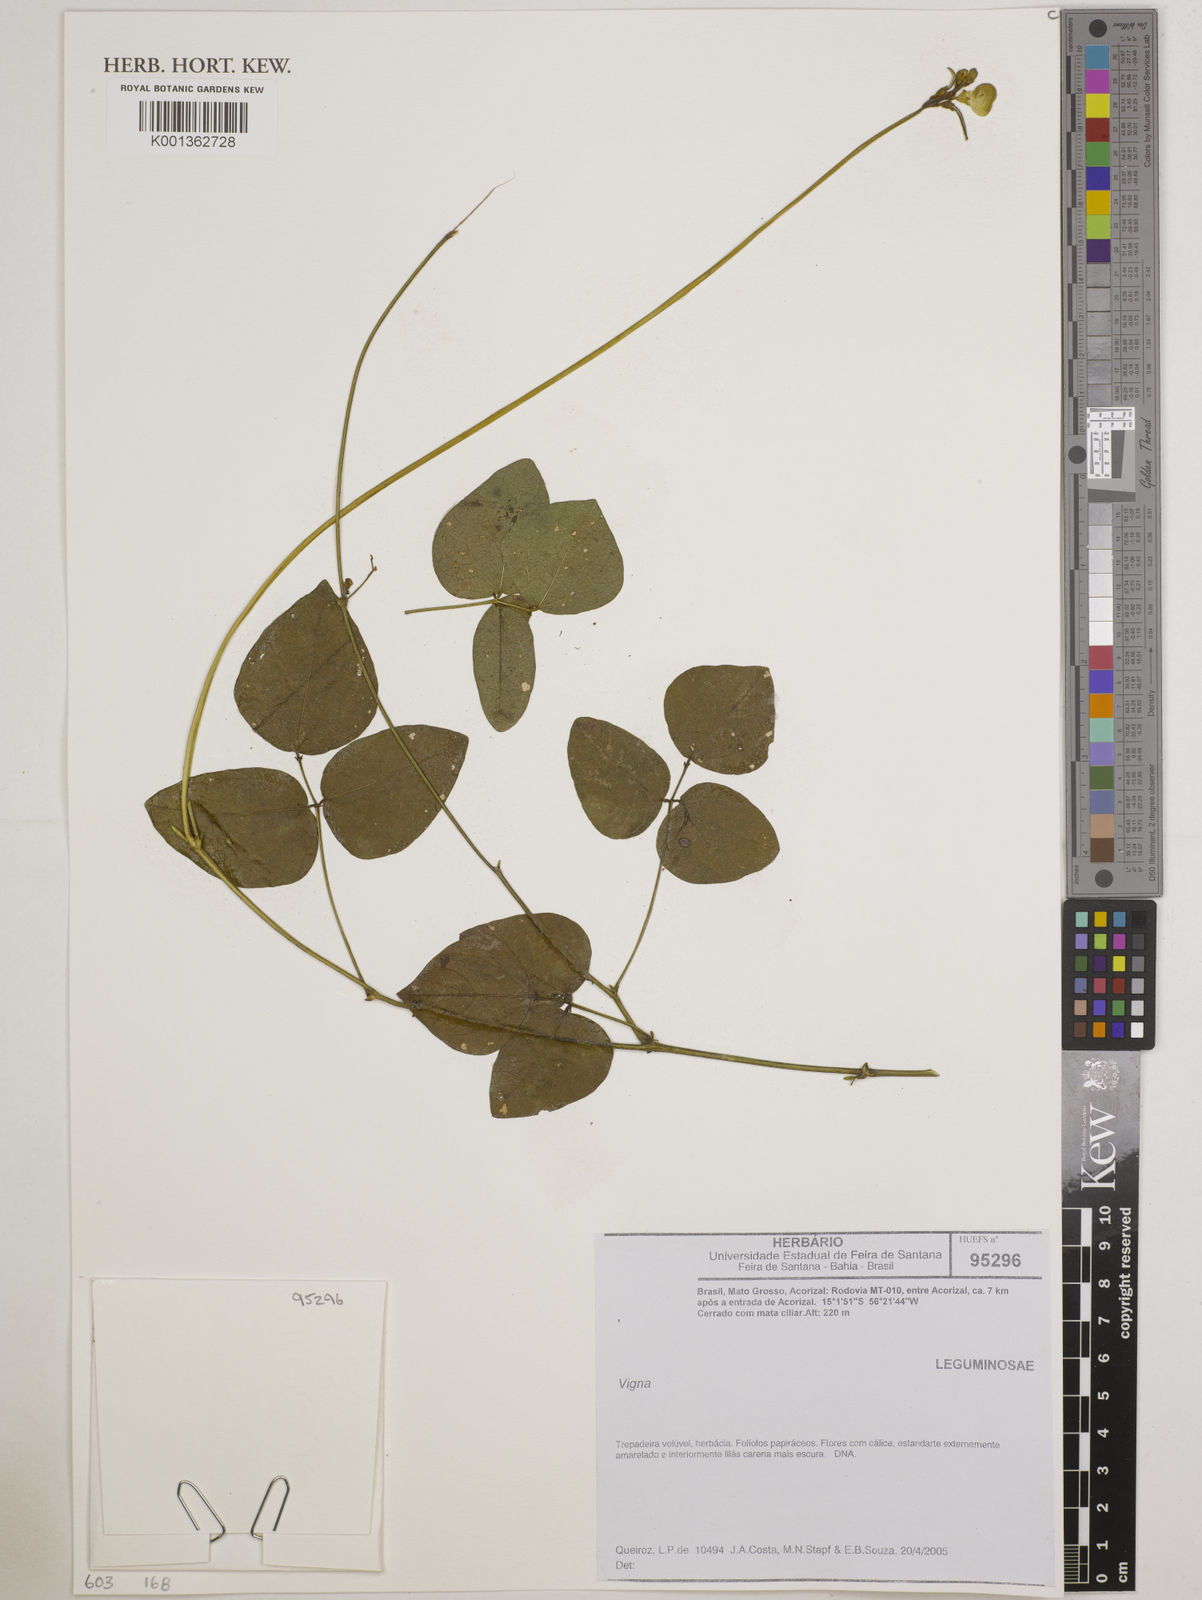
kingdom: Plantae
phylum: Tracheophyta
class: Magnoliopsida
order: Fabales
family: Fabaceae
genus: Vigna
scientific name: Vigna
